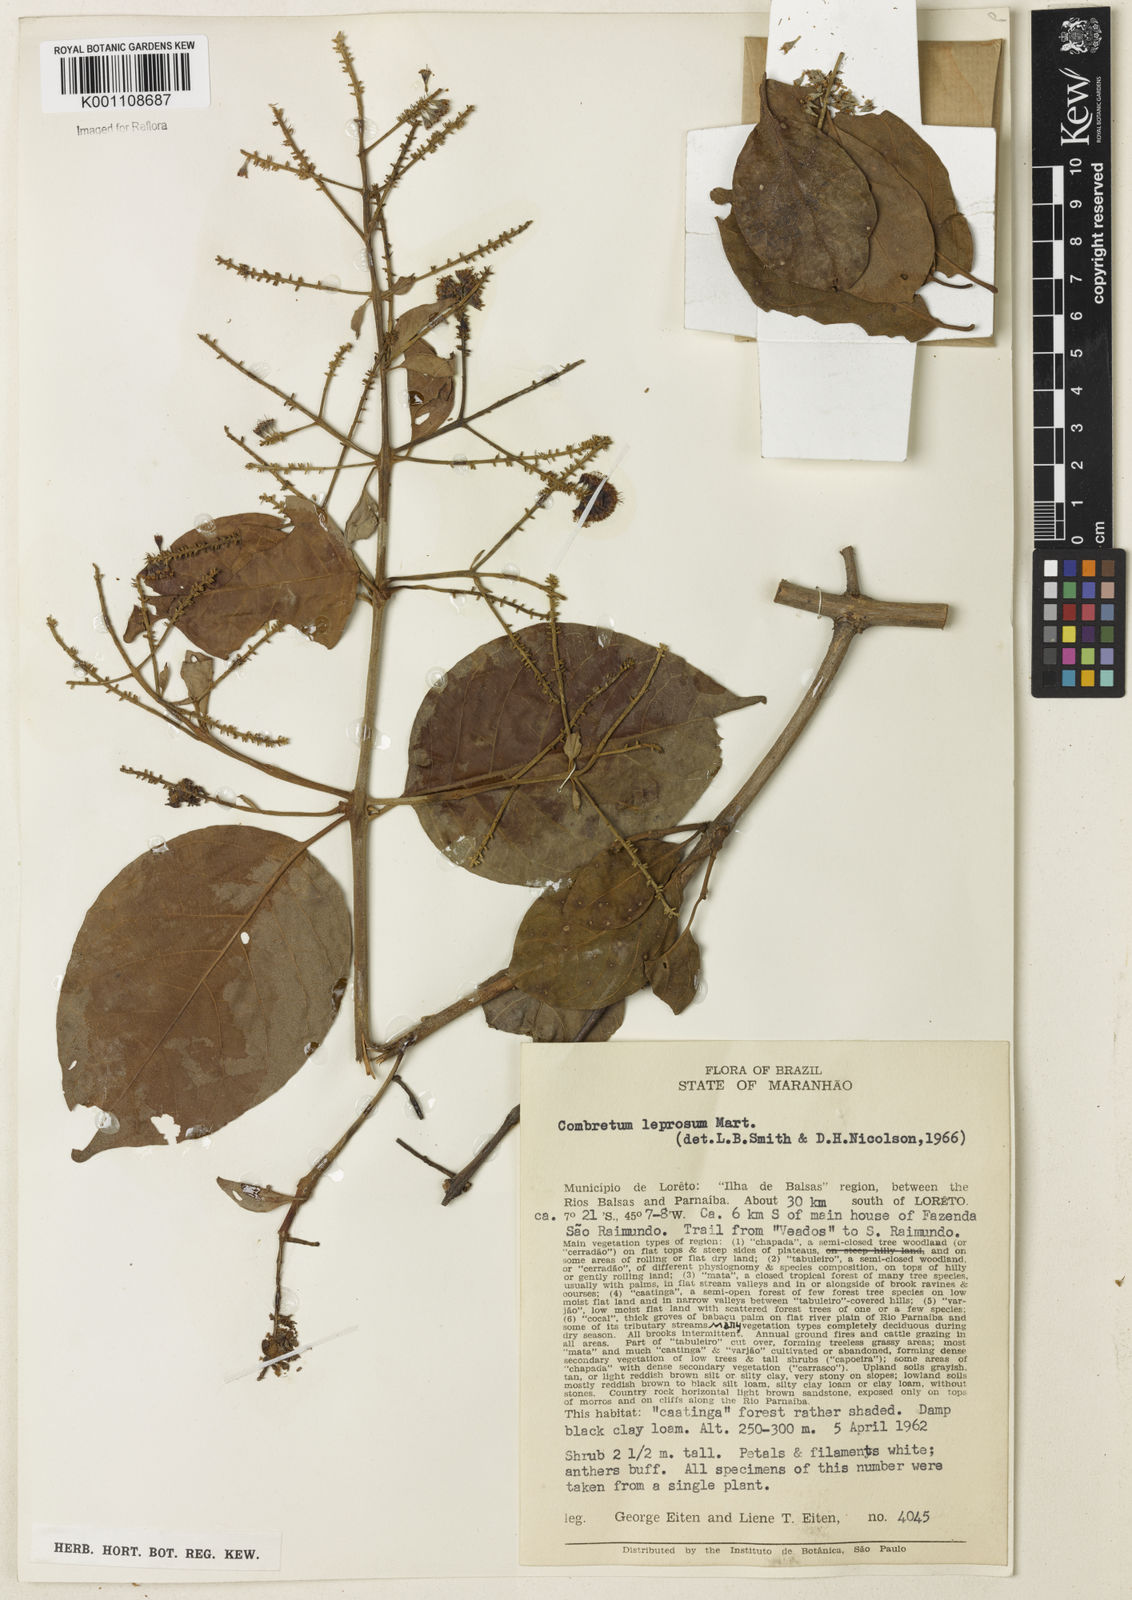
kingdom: Plantae
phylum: Tracheophyta
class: Magnoliopsida
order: Myrtales
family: Combretaceae
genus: Combretum
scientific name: Combretum leprosum
